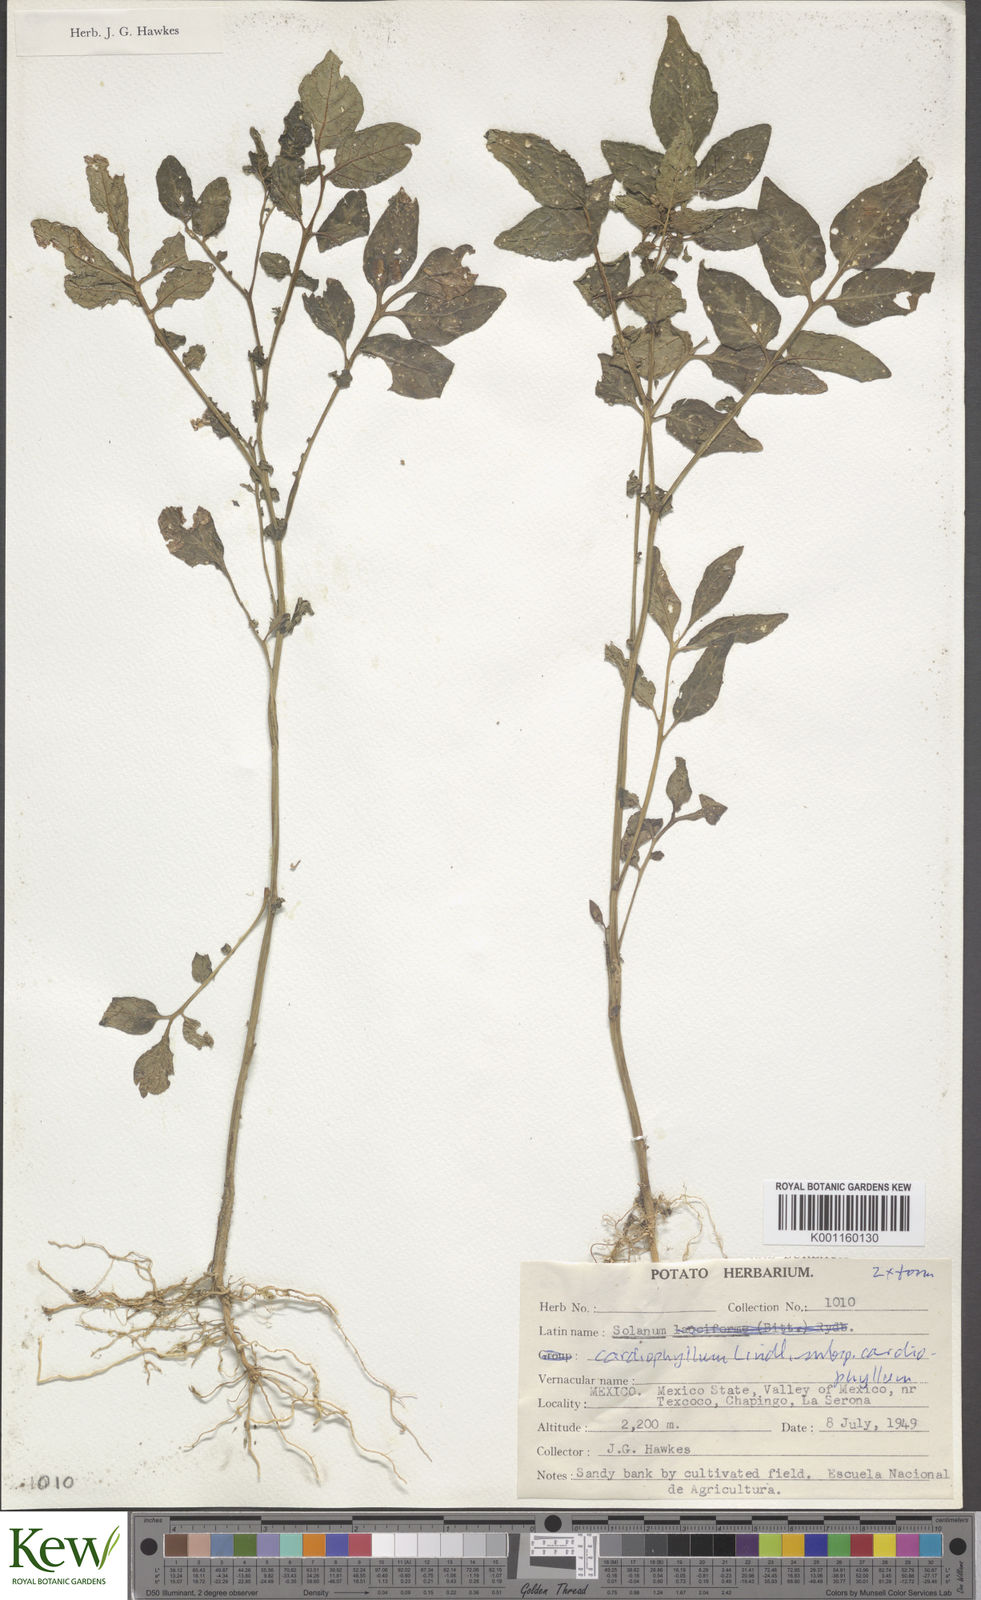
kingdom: Plantae
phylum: Tracheophyta
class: Magnoliopsida
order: Solanales
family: Solanaceae
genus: Solanum
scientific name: Solanum cardiophyllum
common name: Heartleaf horsenettle
